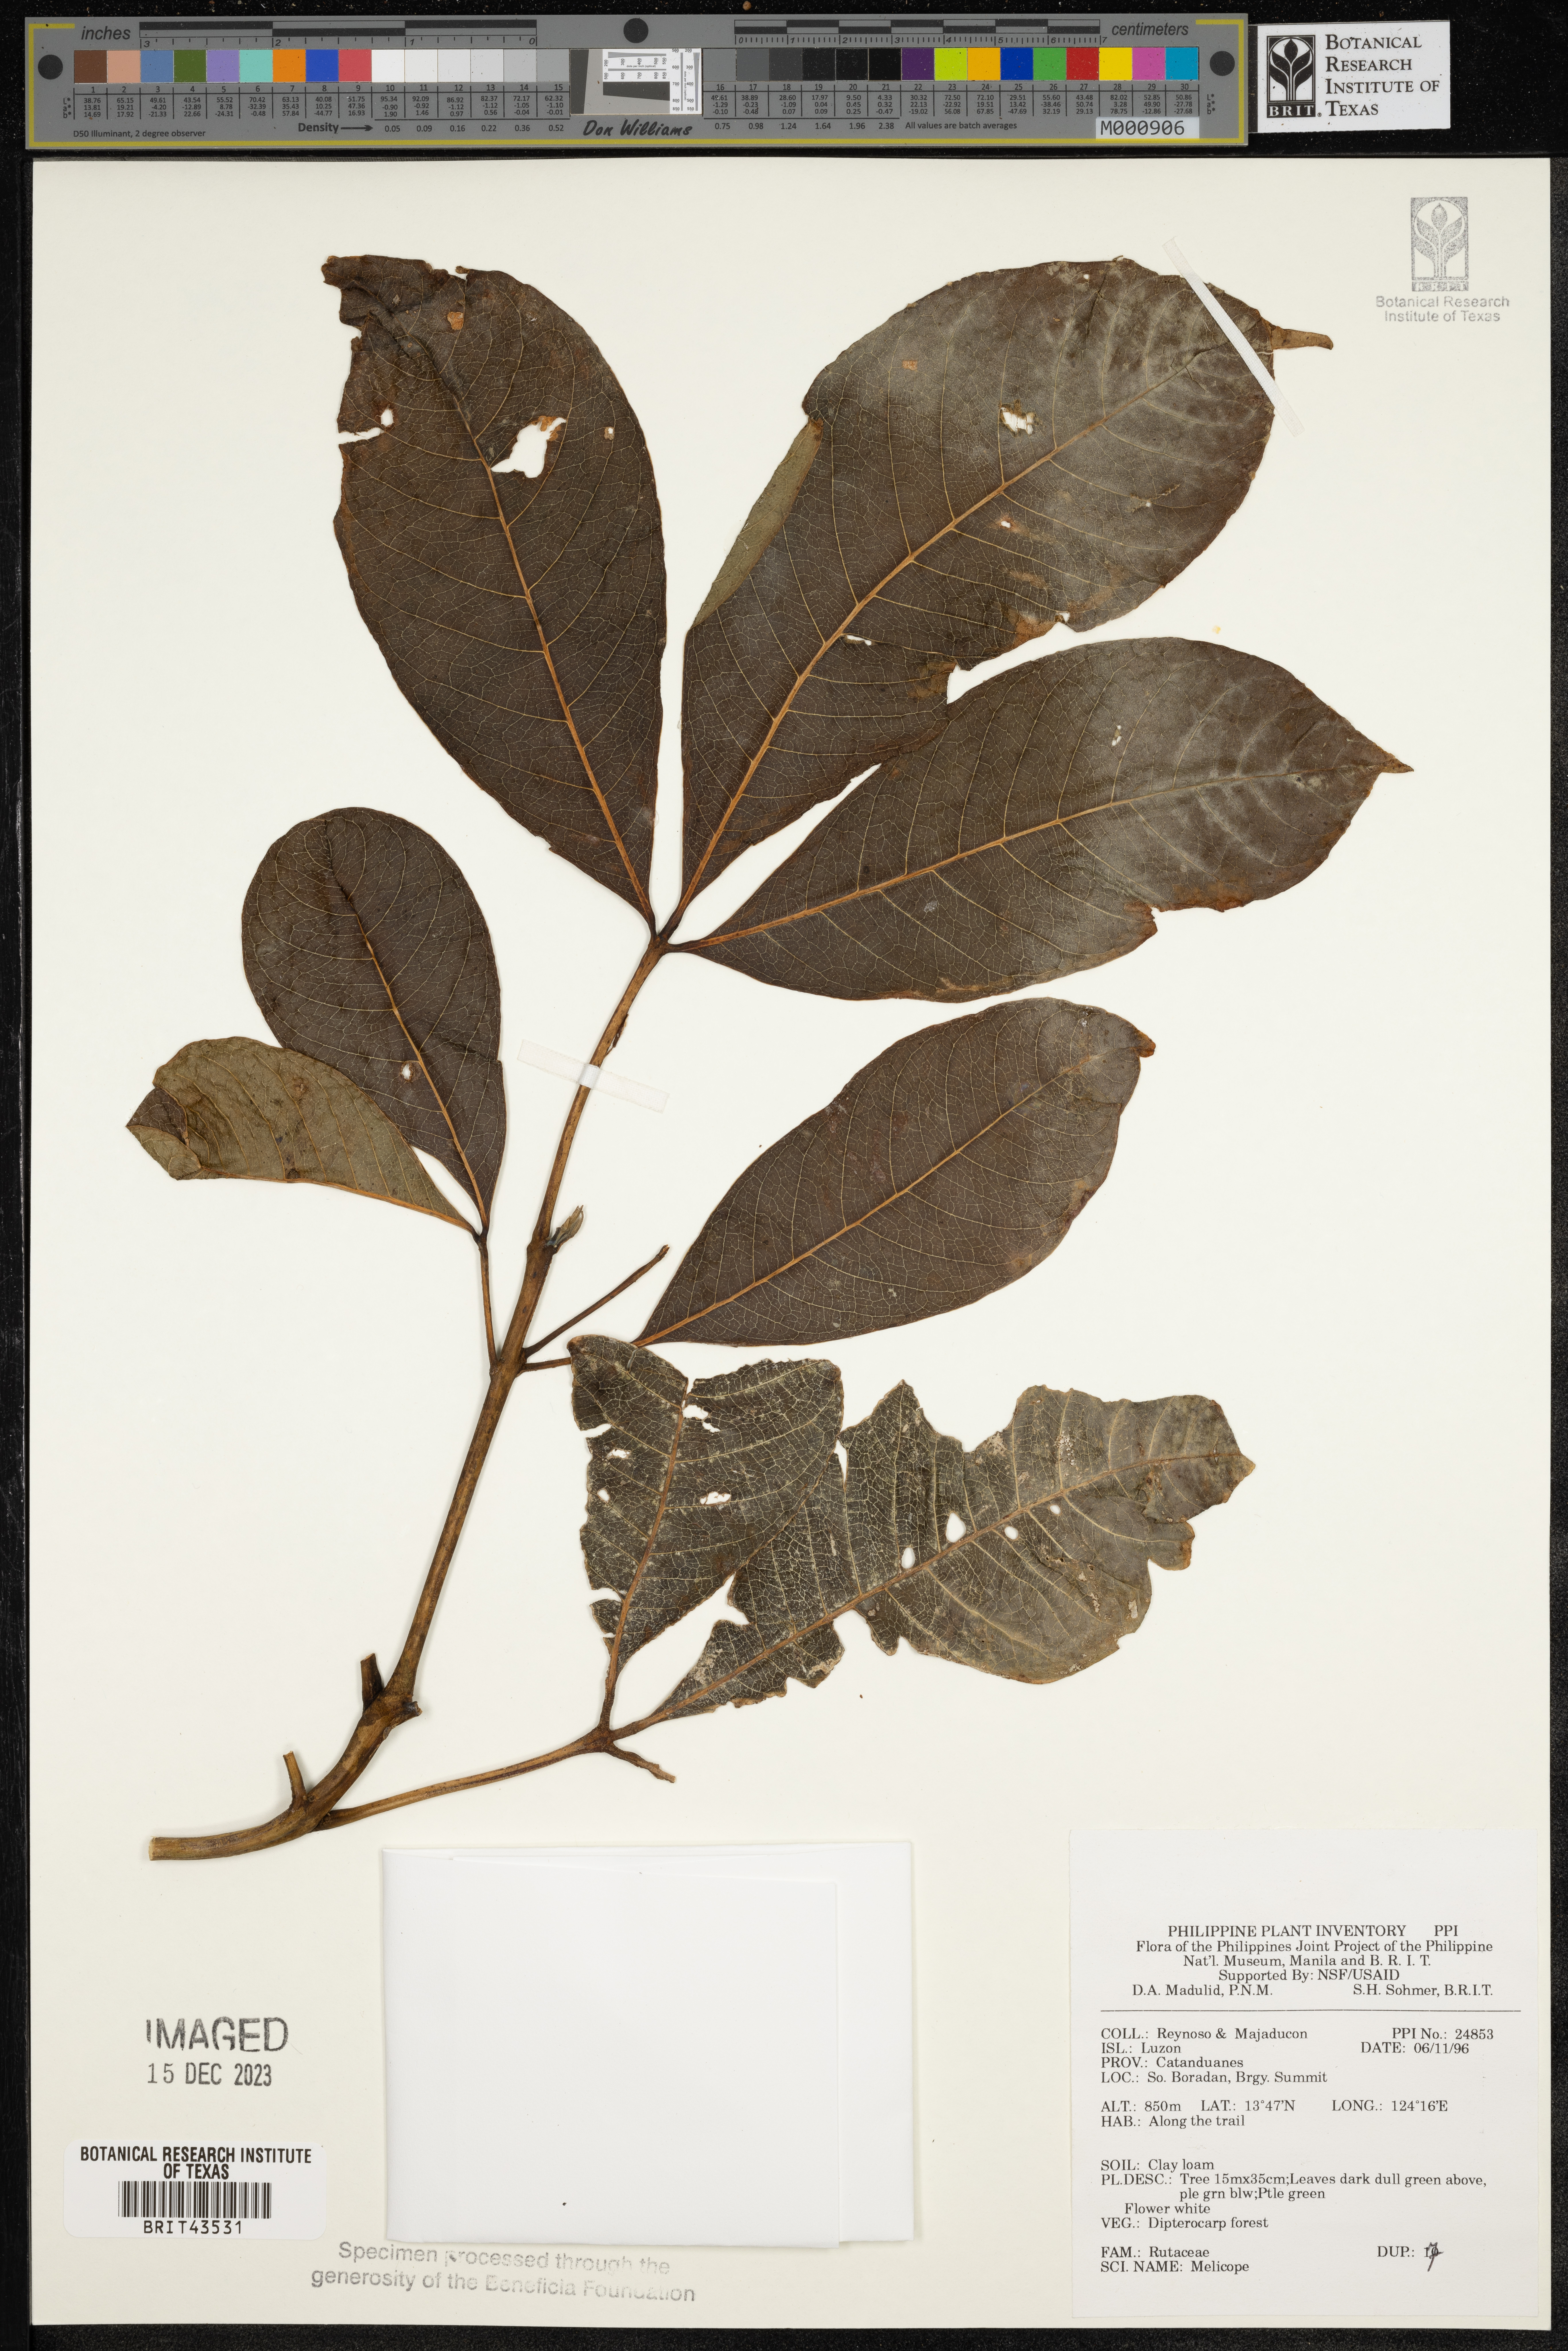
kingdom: Plantae
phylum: Tracheophyta
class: Magnoliopsida
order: Sapindales
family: Rutaceae
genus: Melicope
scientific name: Melicope
